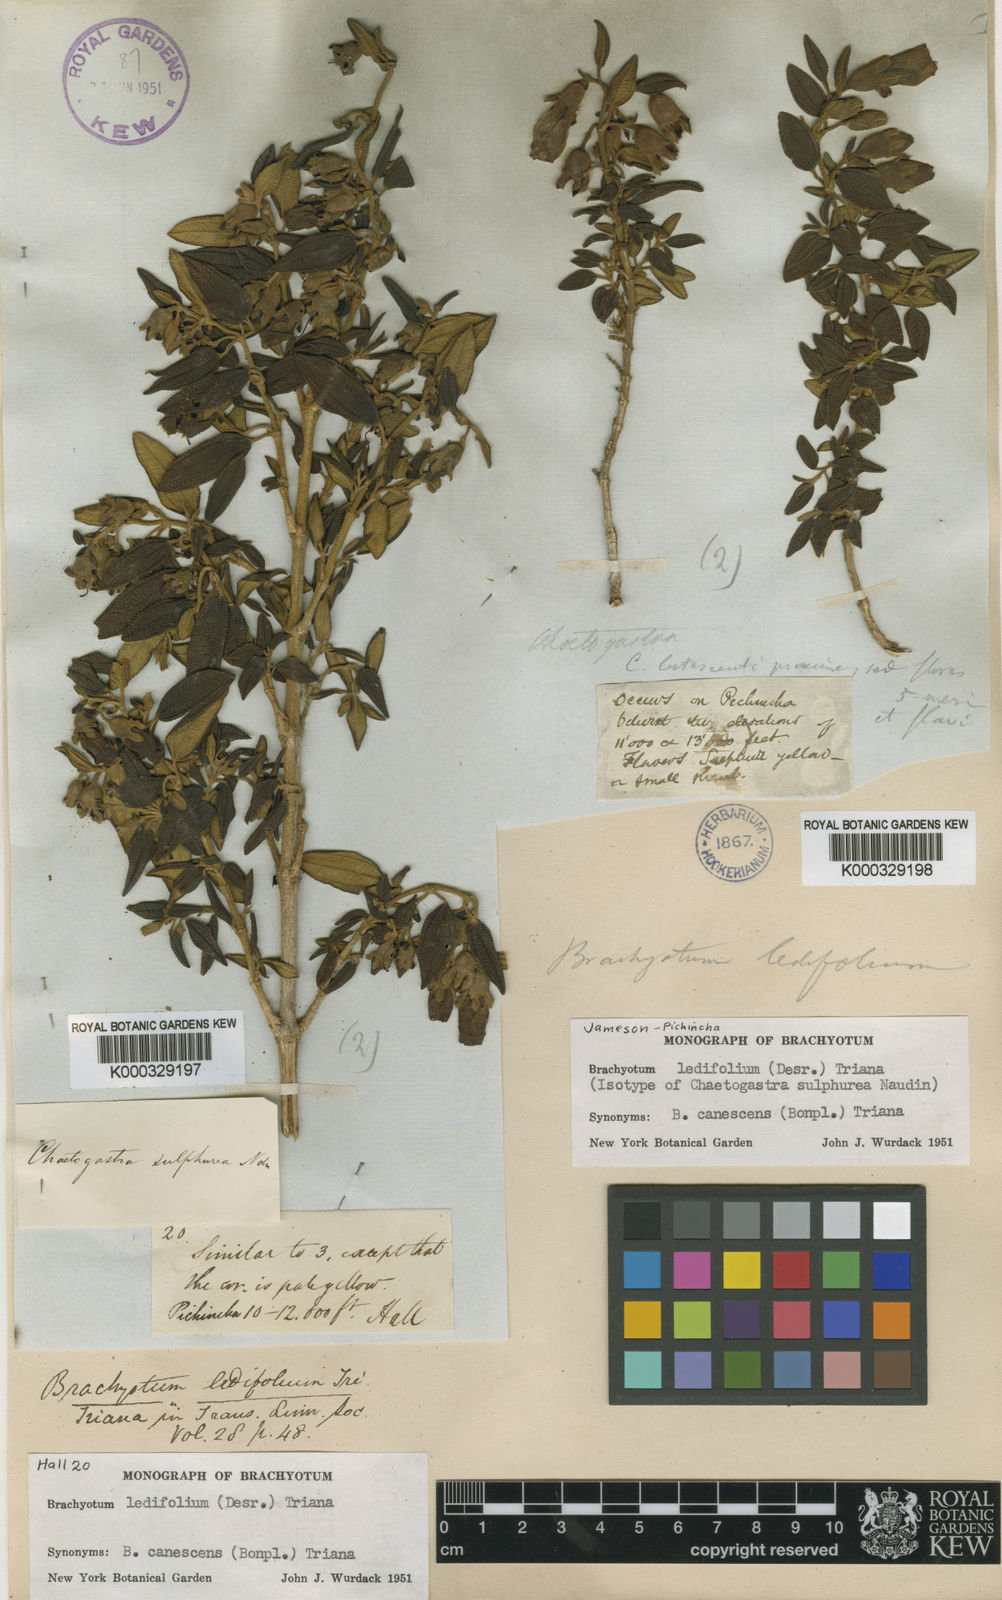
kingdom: Plantae
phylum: Tracheophyta
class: Magnoliopsida
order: Myrtales
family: Melastomataceae
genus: Brachyotum
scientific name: Brachyotum ledifolium
